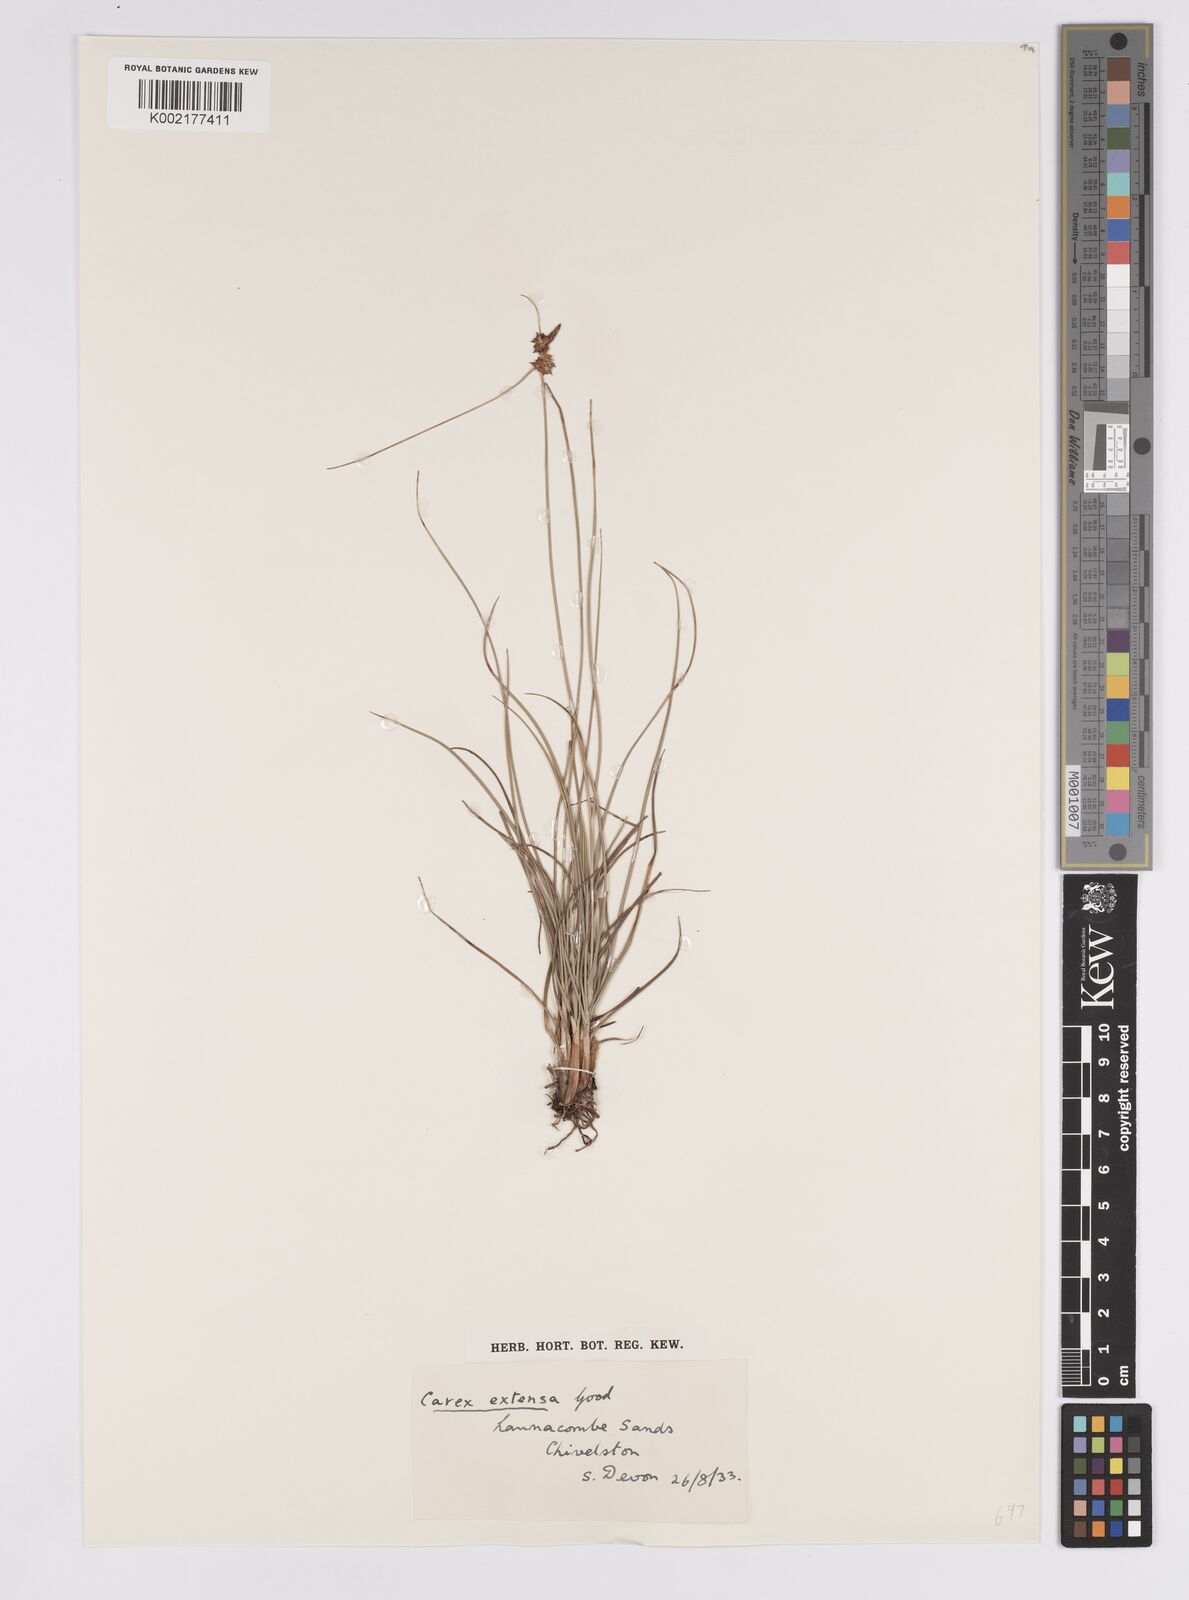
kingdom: Plantae
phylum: Tracheophyta
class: Liliopsida
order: Poales
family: Cyperaceae
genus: Carex
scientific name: Carex extensa
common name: Long-bracted sedge
